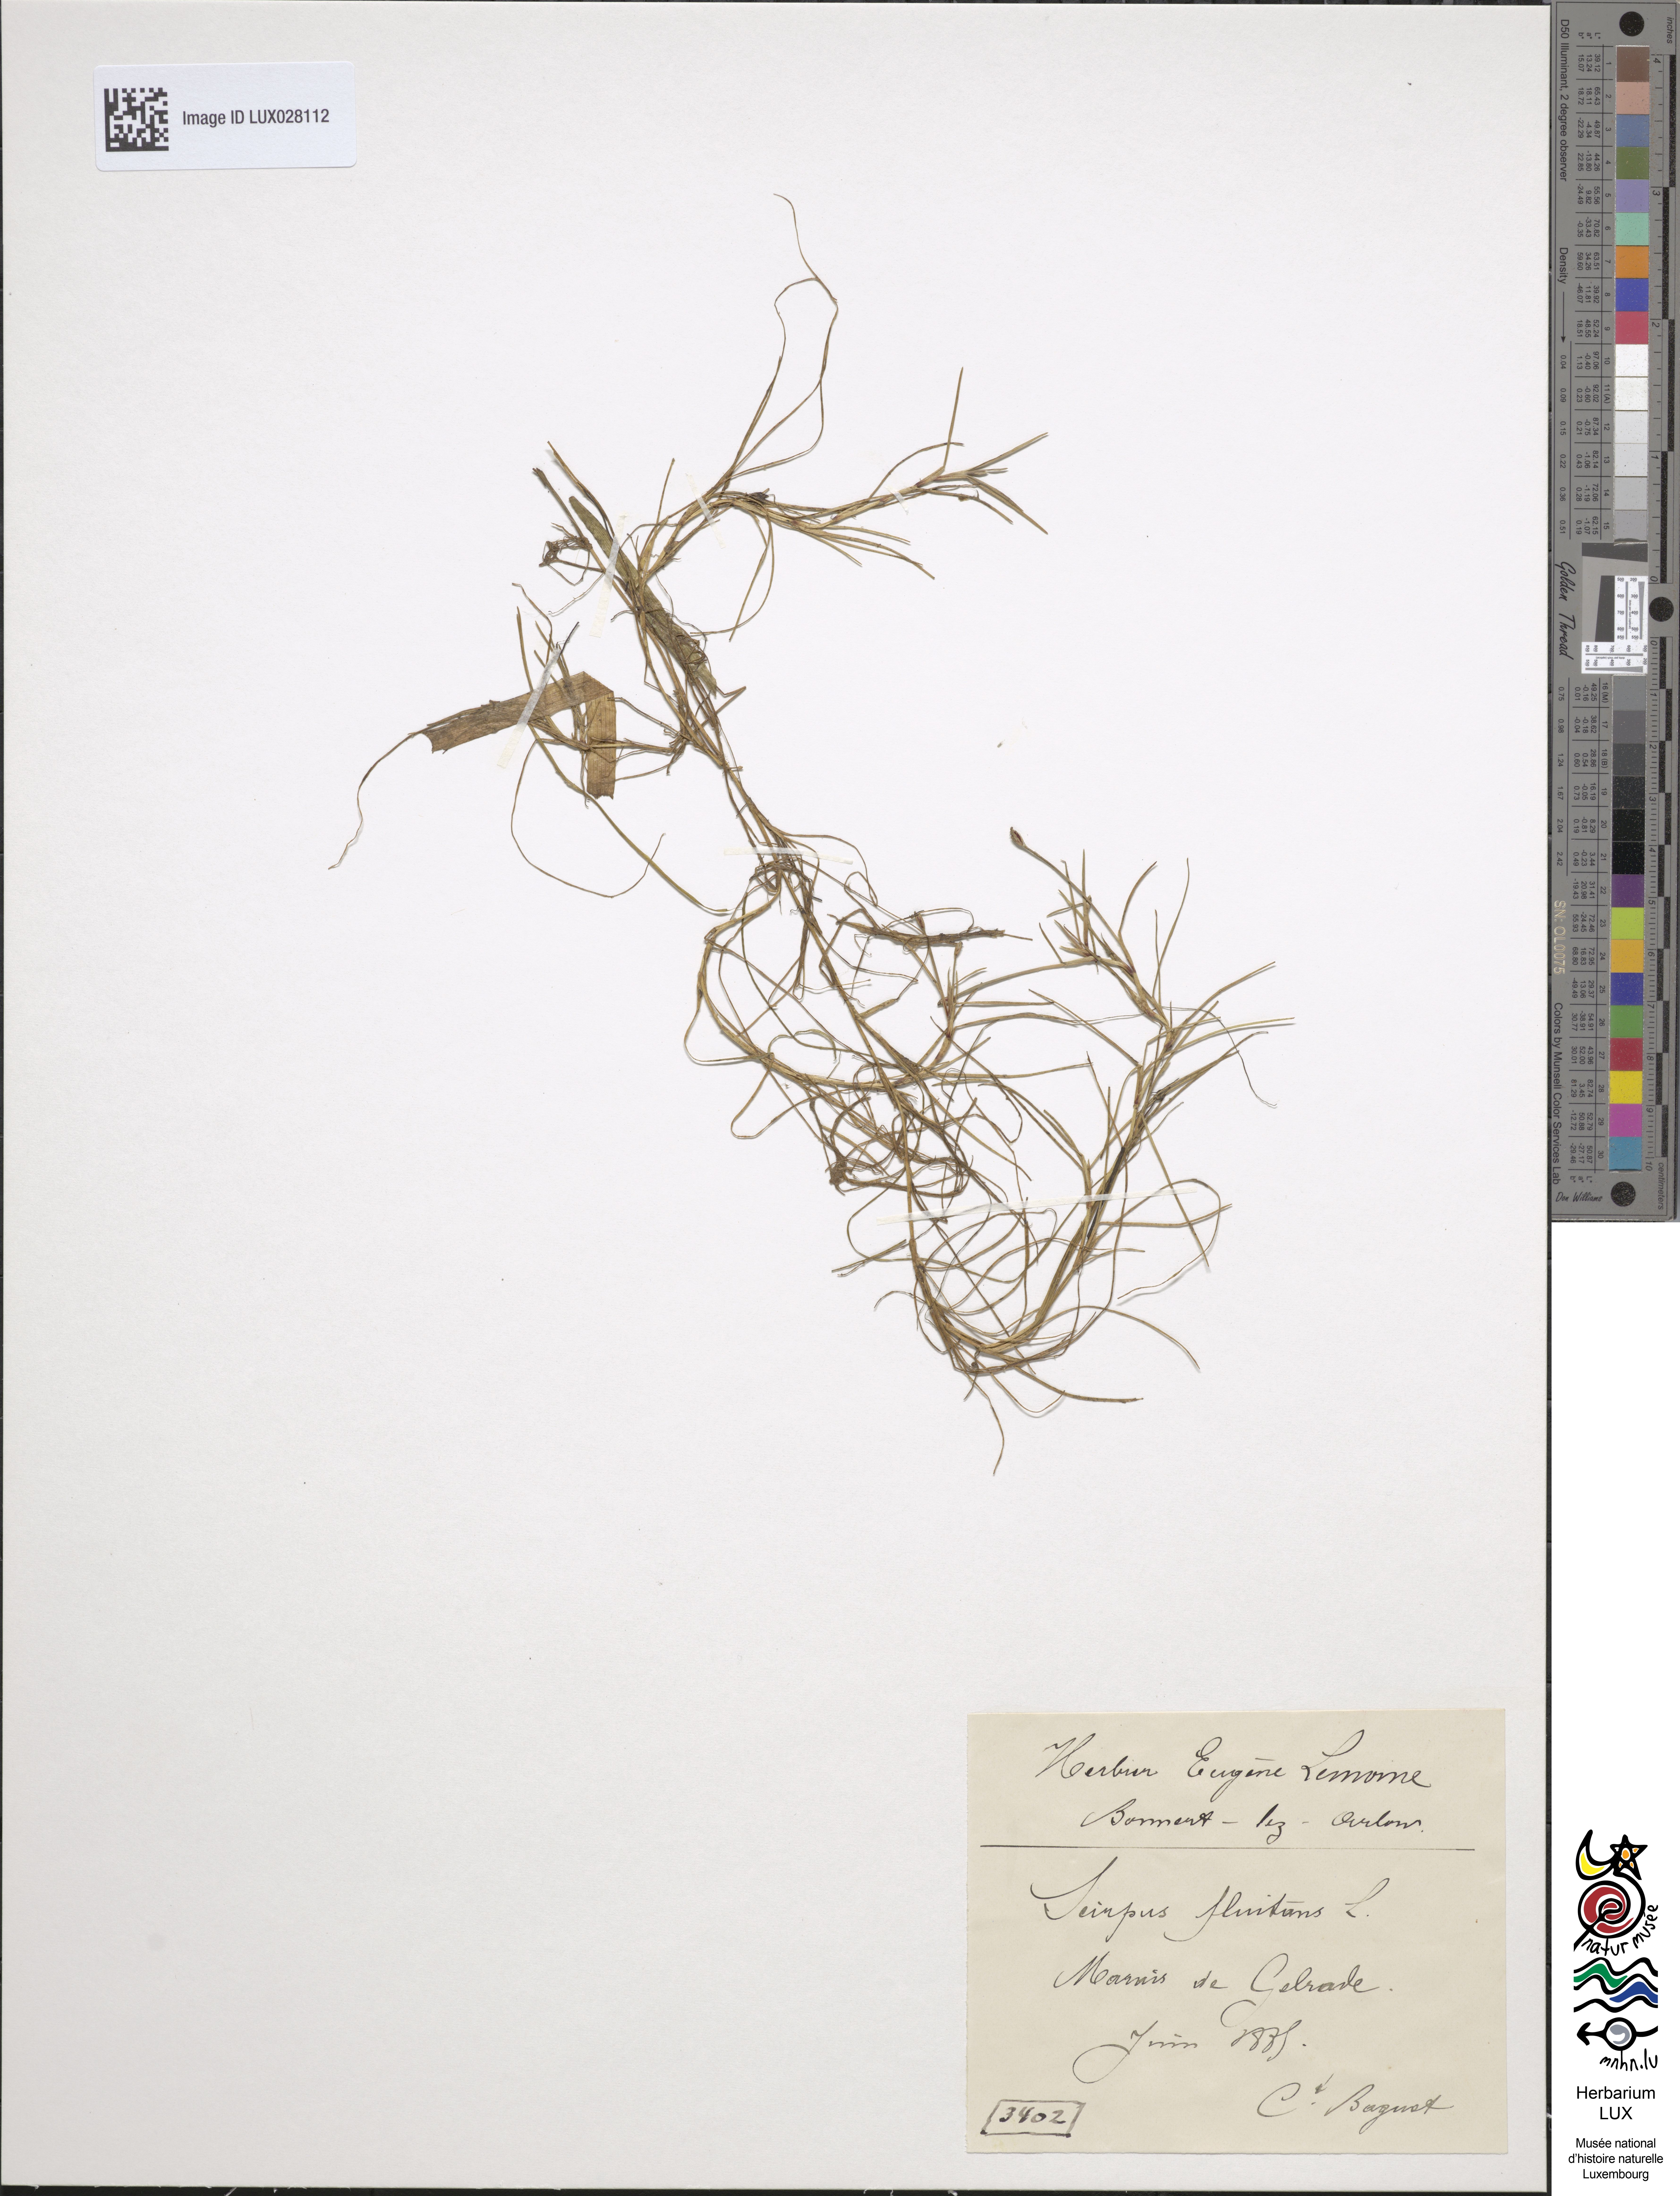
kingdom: Plantae
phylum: Tracheophyta
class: Liliopsida
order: Poales
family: Cyperaceae
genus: Isolepis
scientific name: Isolepis fluitans
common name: Floating club-rush
